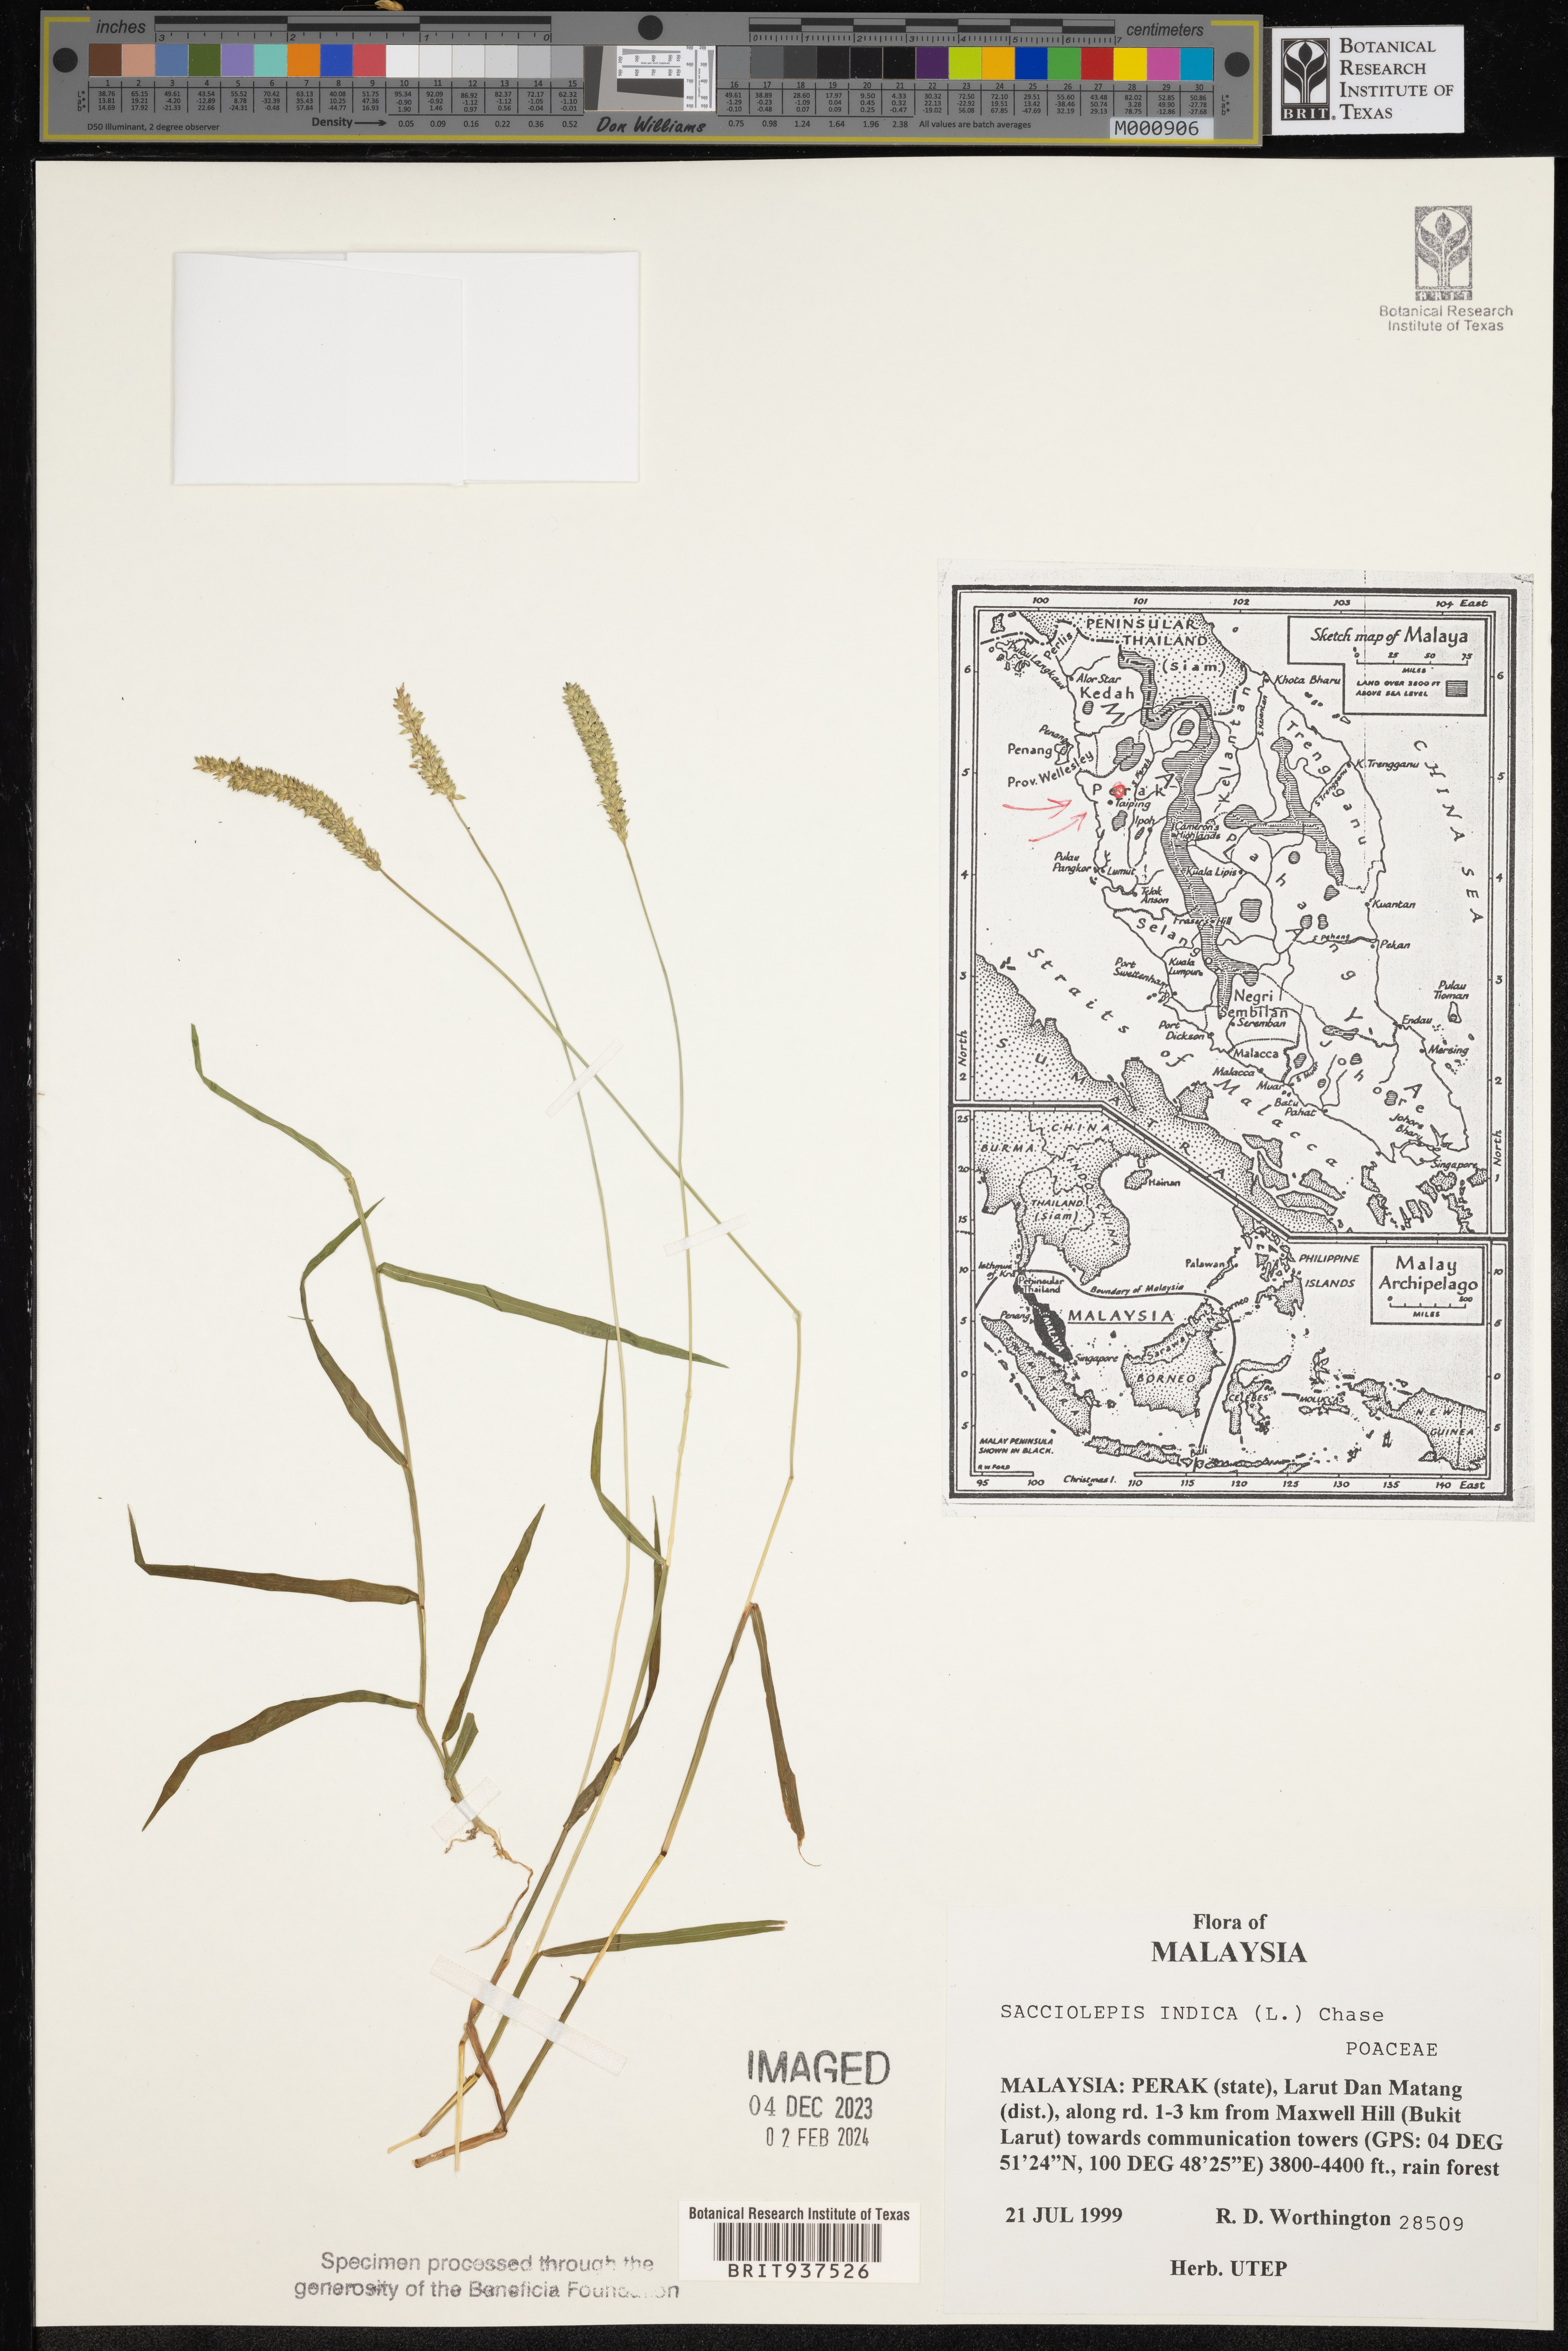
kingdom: Plantae
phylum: Tracheophyta
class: Liliopsida
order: Poales
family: Poaceae
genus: Sacciolepis
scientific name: Sacciolepis
